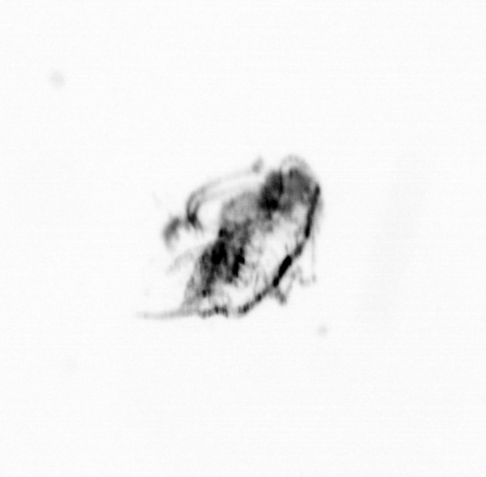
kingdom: Animalia
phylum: Arthropoda
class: Copepoda
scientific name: Copepoda
